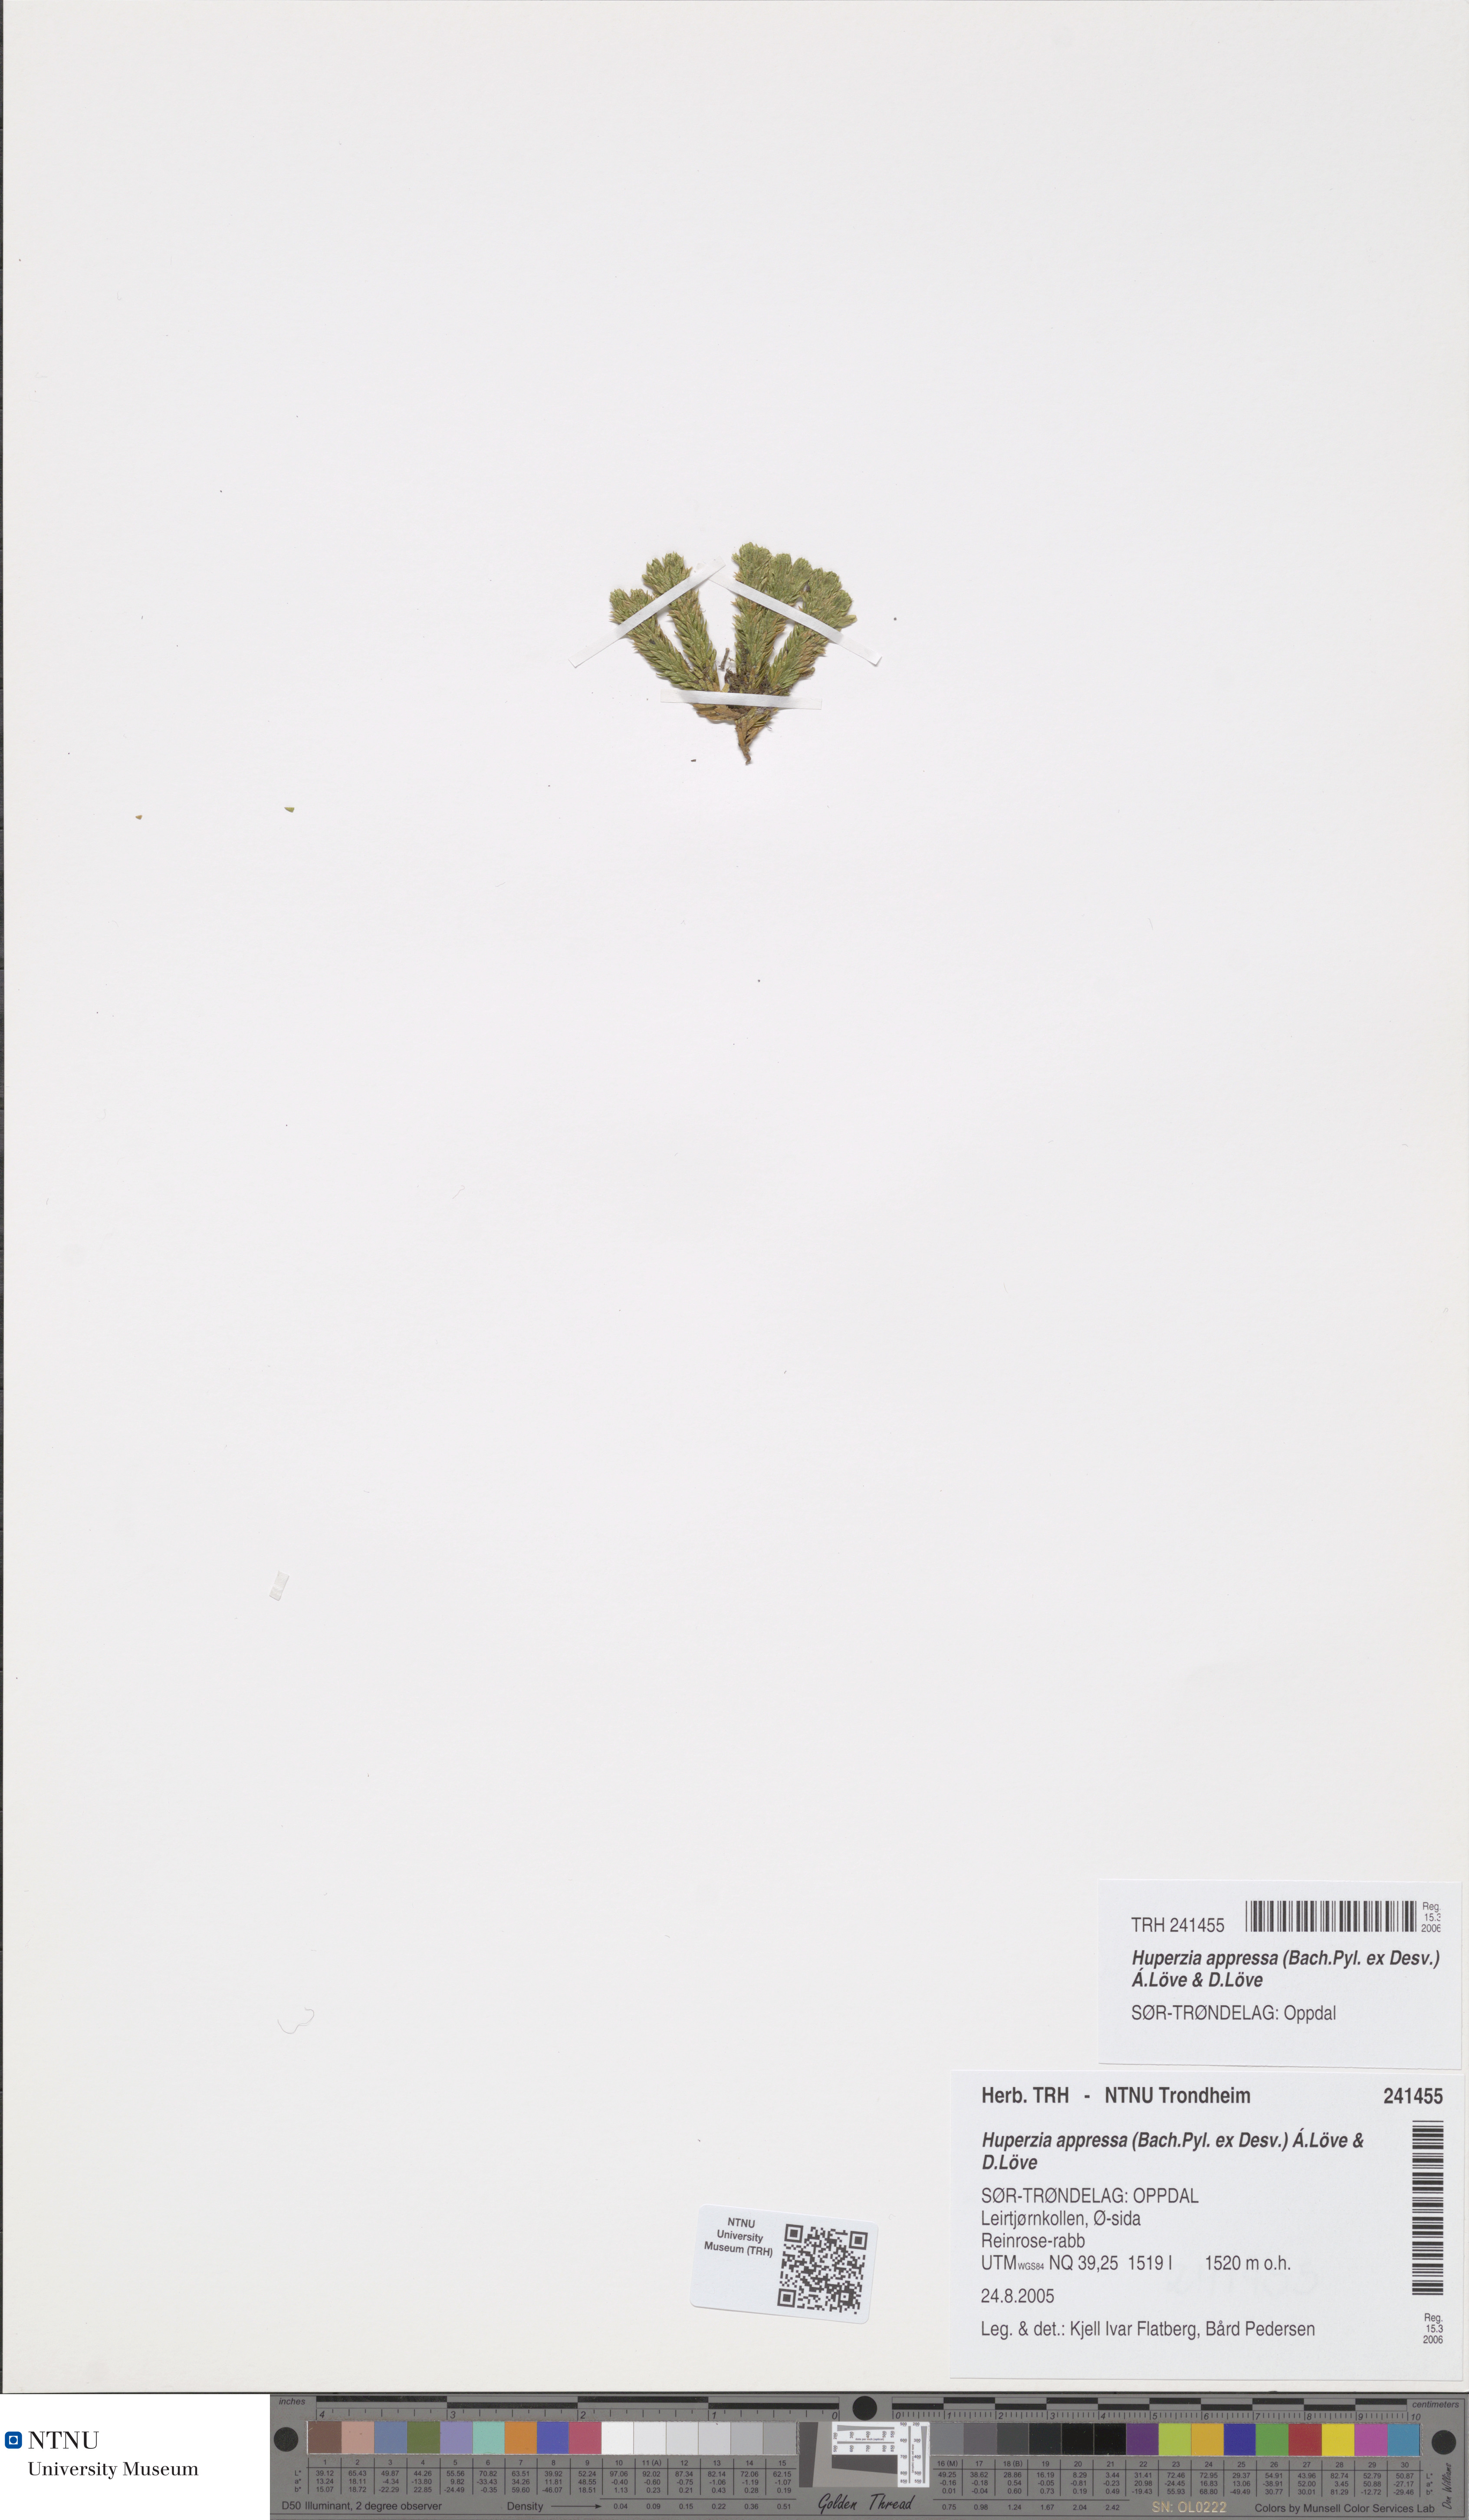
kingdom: Plantae
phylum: Tracheophyta
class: Lycopodiopsida
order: Lycopodiales
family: Lycopodiaceae
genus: Huperzia
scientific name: Huperzia selago
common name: Northern firmoss
